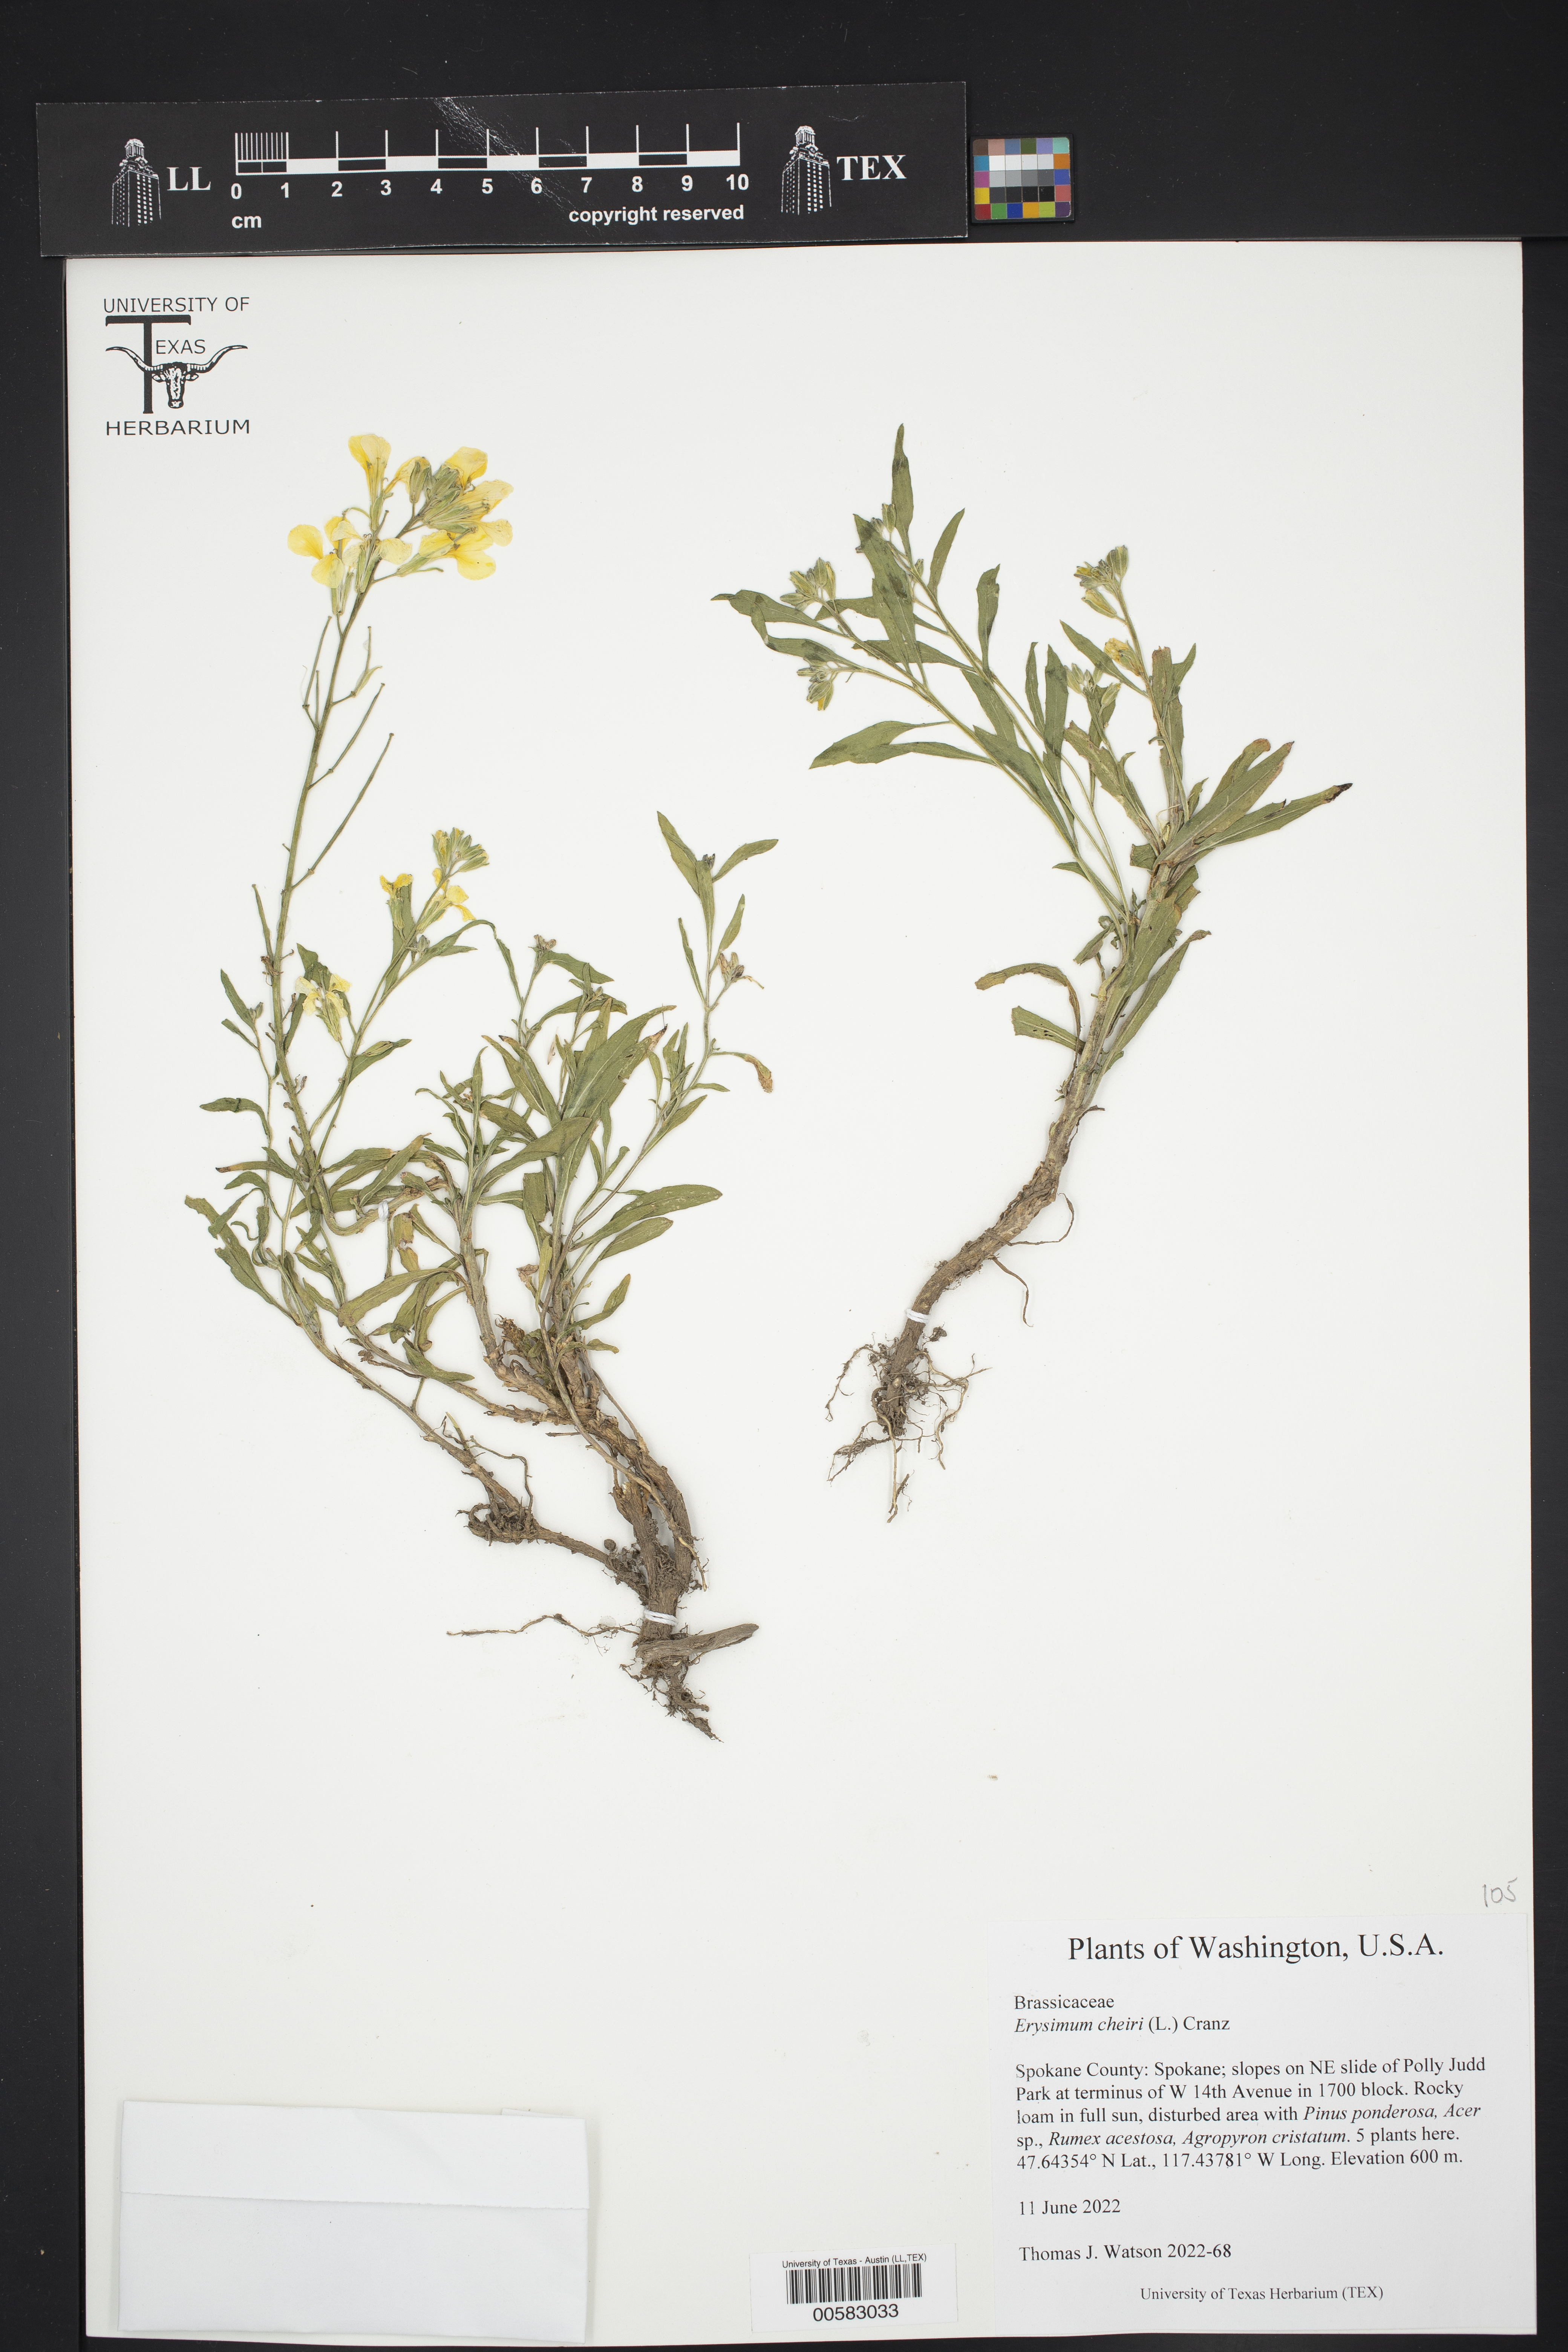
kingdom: Plantae
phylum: Tracheophyta
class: Magnoliopsida
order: Brassicales
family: Brassicaceae
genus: Erysimum
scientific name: Erysimum cheiri
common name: Wallflower
